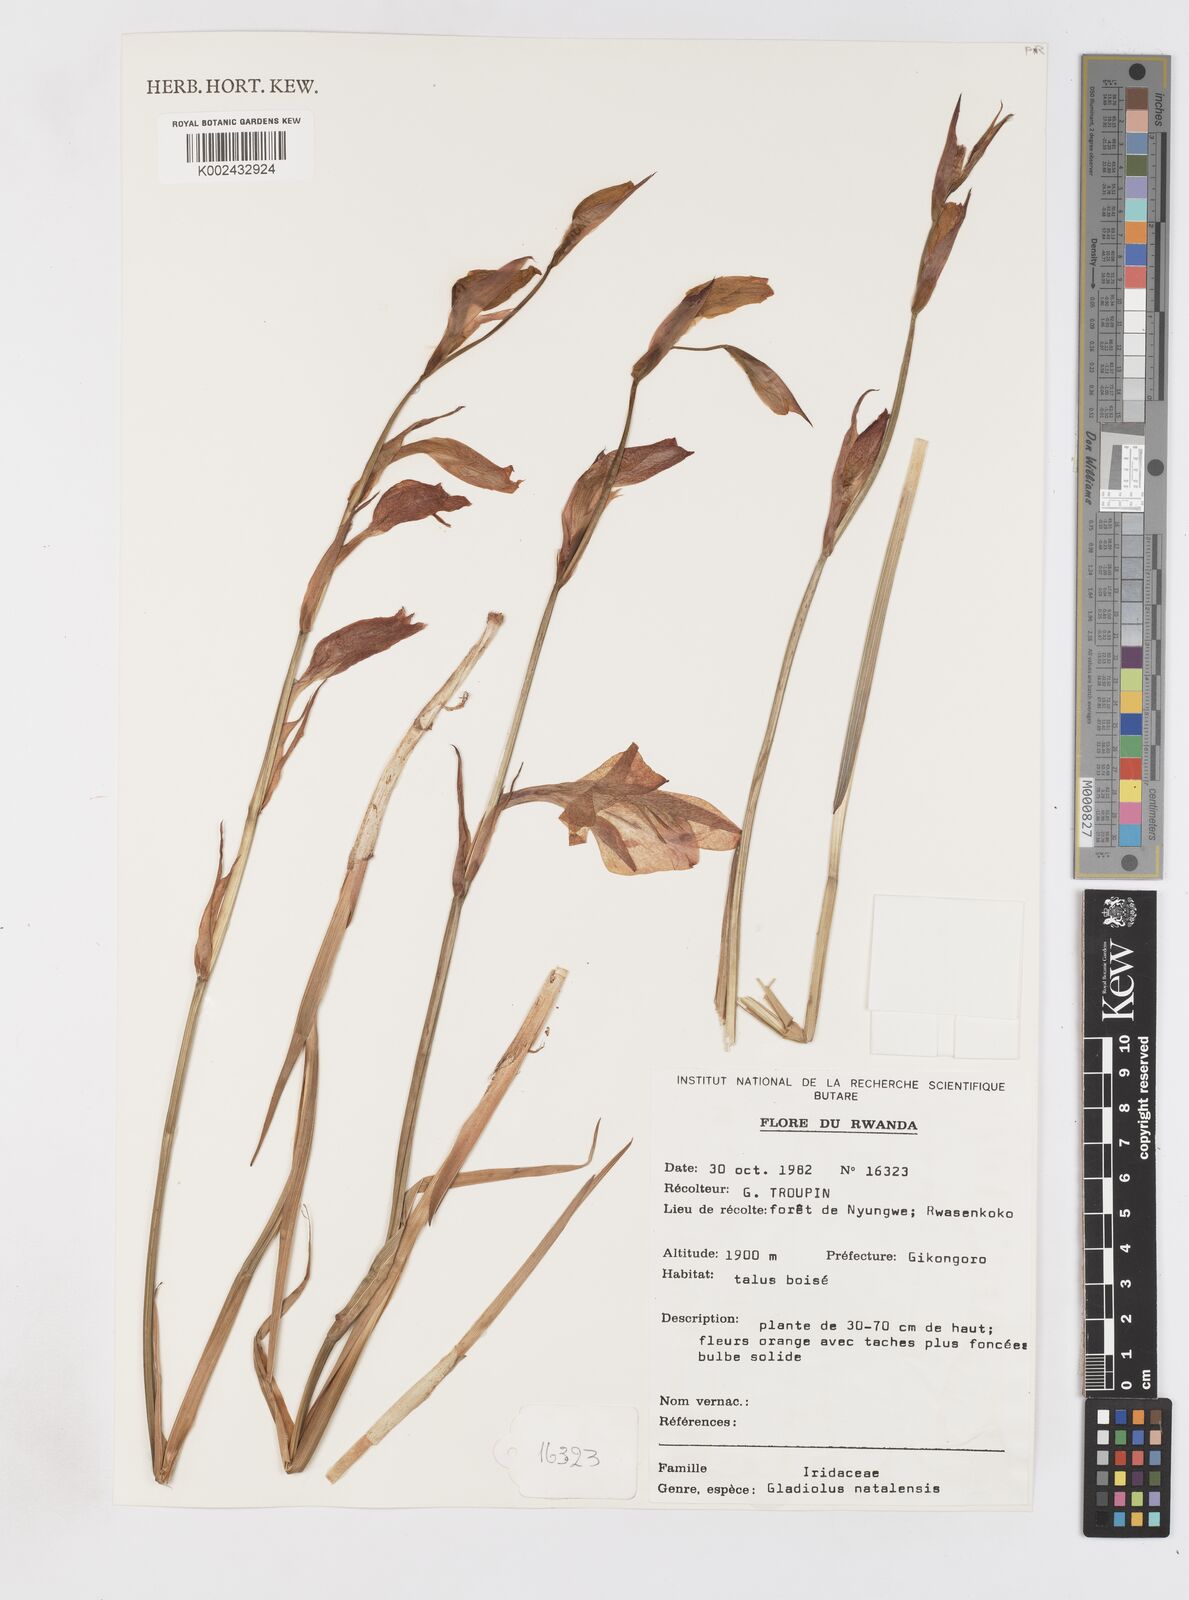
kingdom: Plantae
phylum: Tracheophyta
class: Liliopsida
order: Asparagales
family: Iridaceae
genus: Gladiolus
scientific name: Gladiolus dalenii
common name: Cornflag
